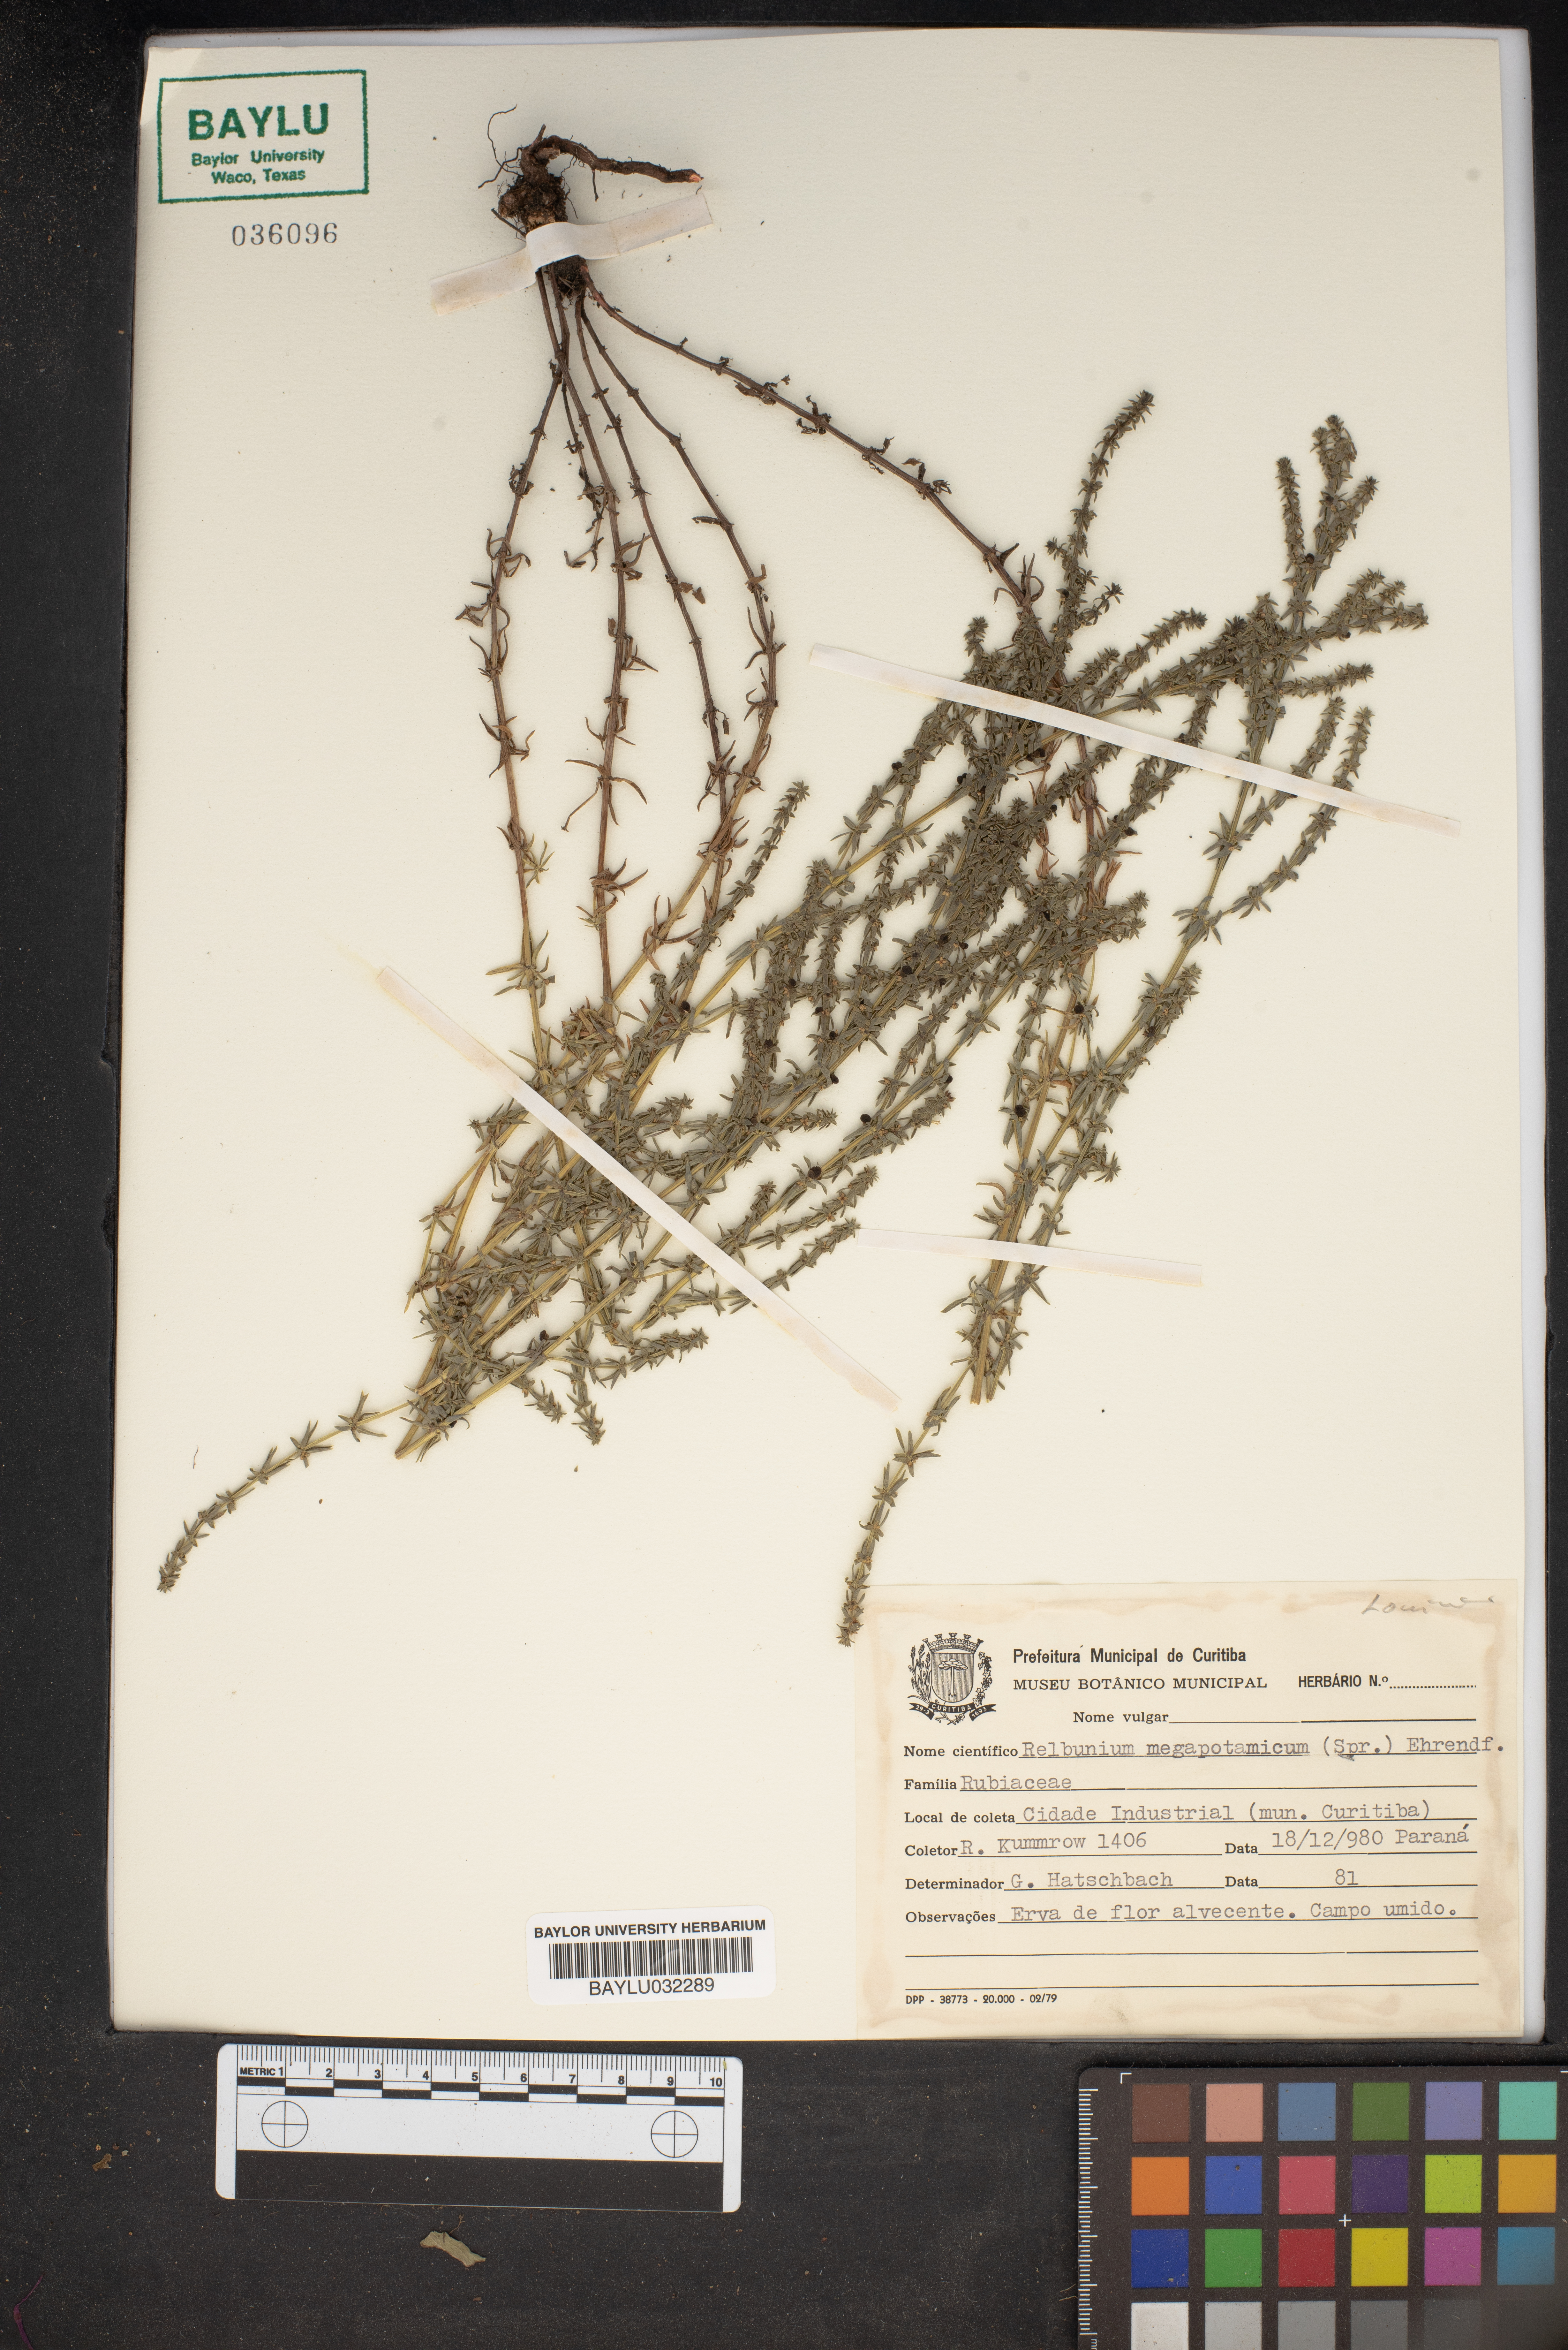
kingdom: Plantae
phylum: Tracheophyta
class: Magnoliopsida
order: Gentianales
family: Rubiaceae
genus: Galium
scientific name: Galium megapotamicum
